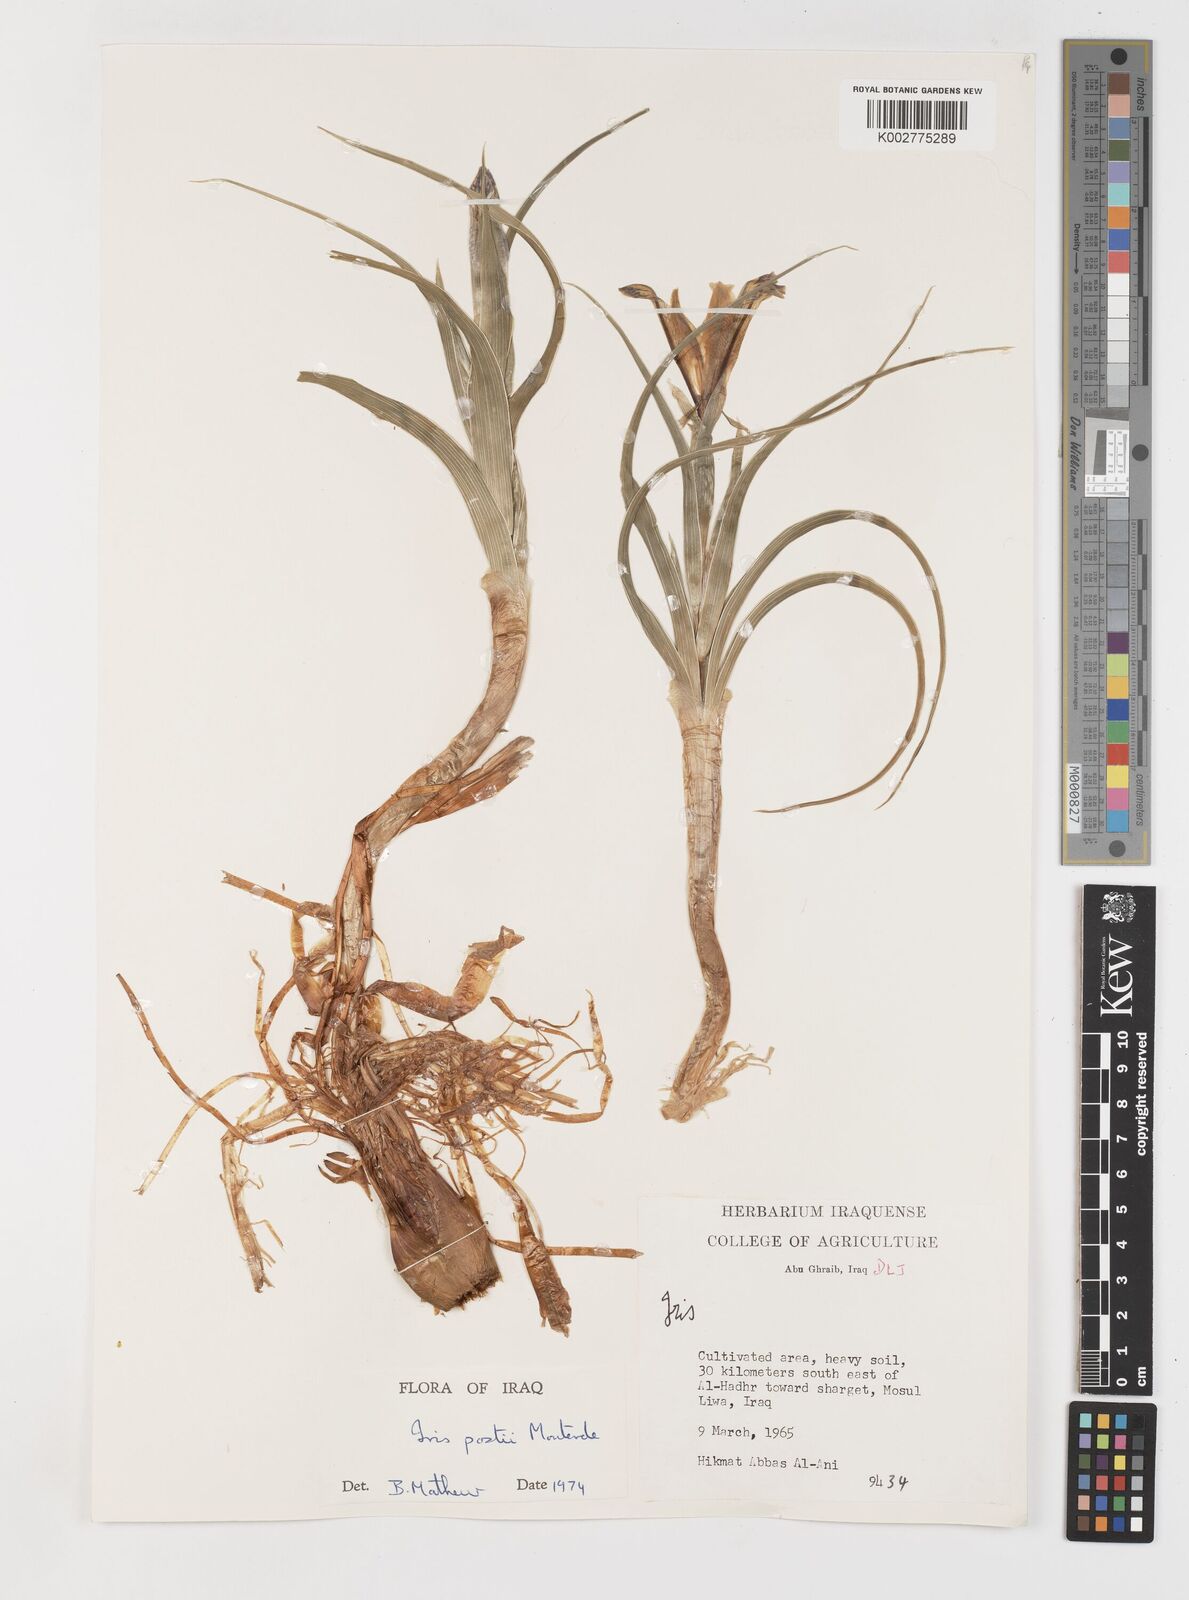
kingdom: Plantae
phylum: Tracheophyta
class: Liliopsida
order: Asparagales
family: Iridaceae
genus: Iris
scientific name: Iris postii
